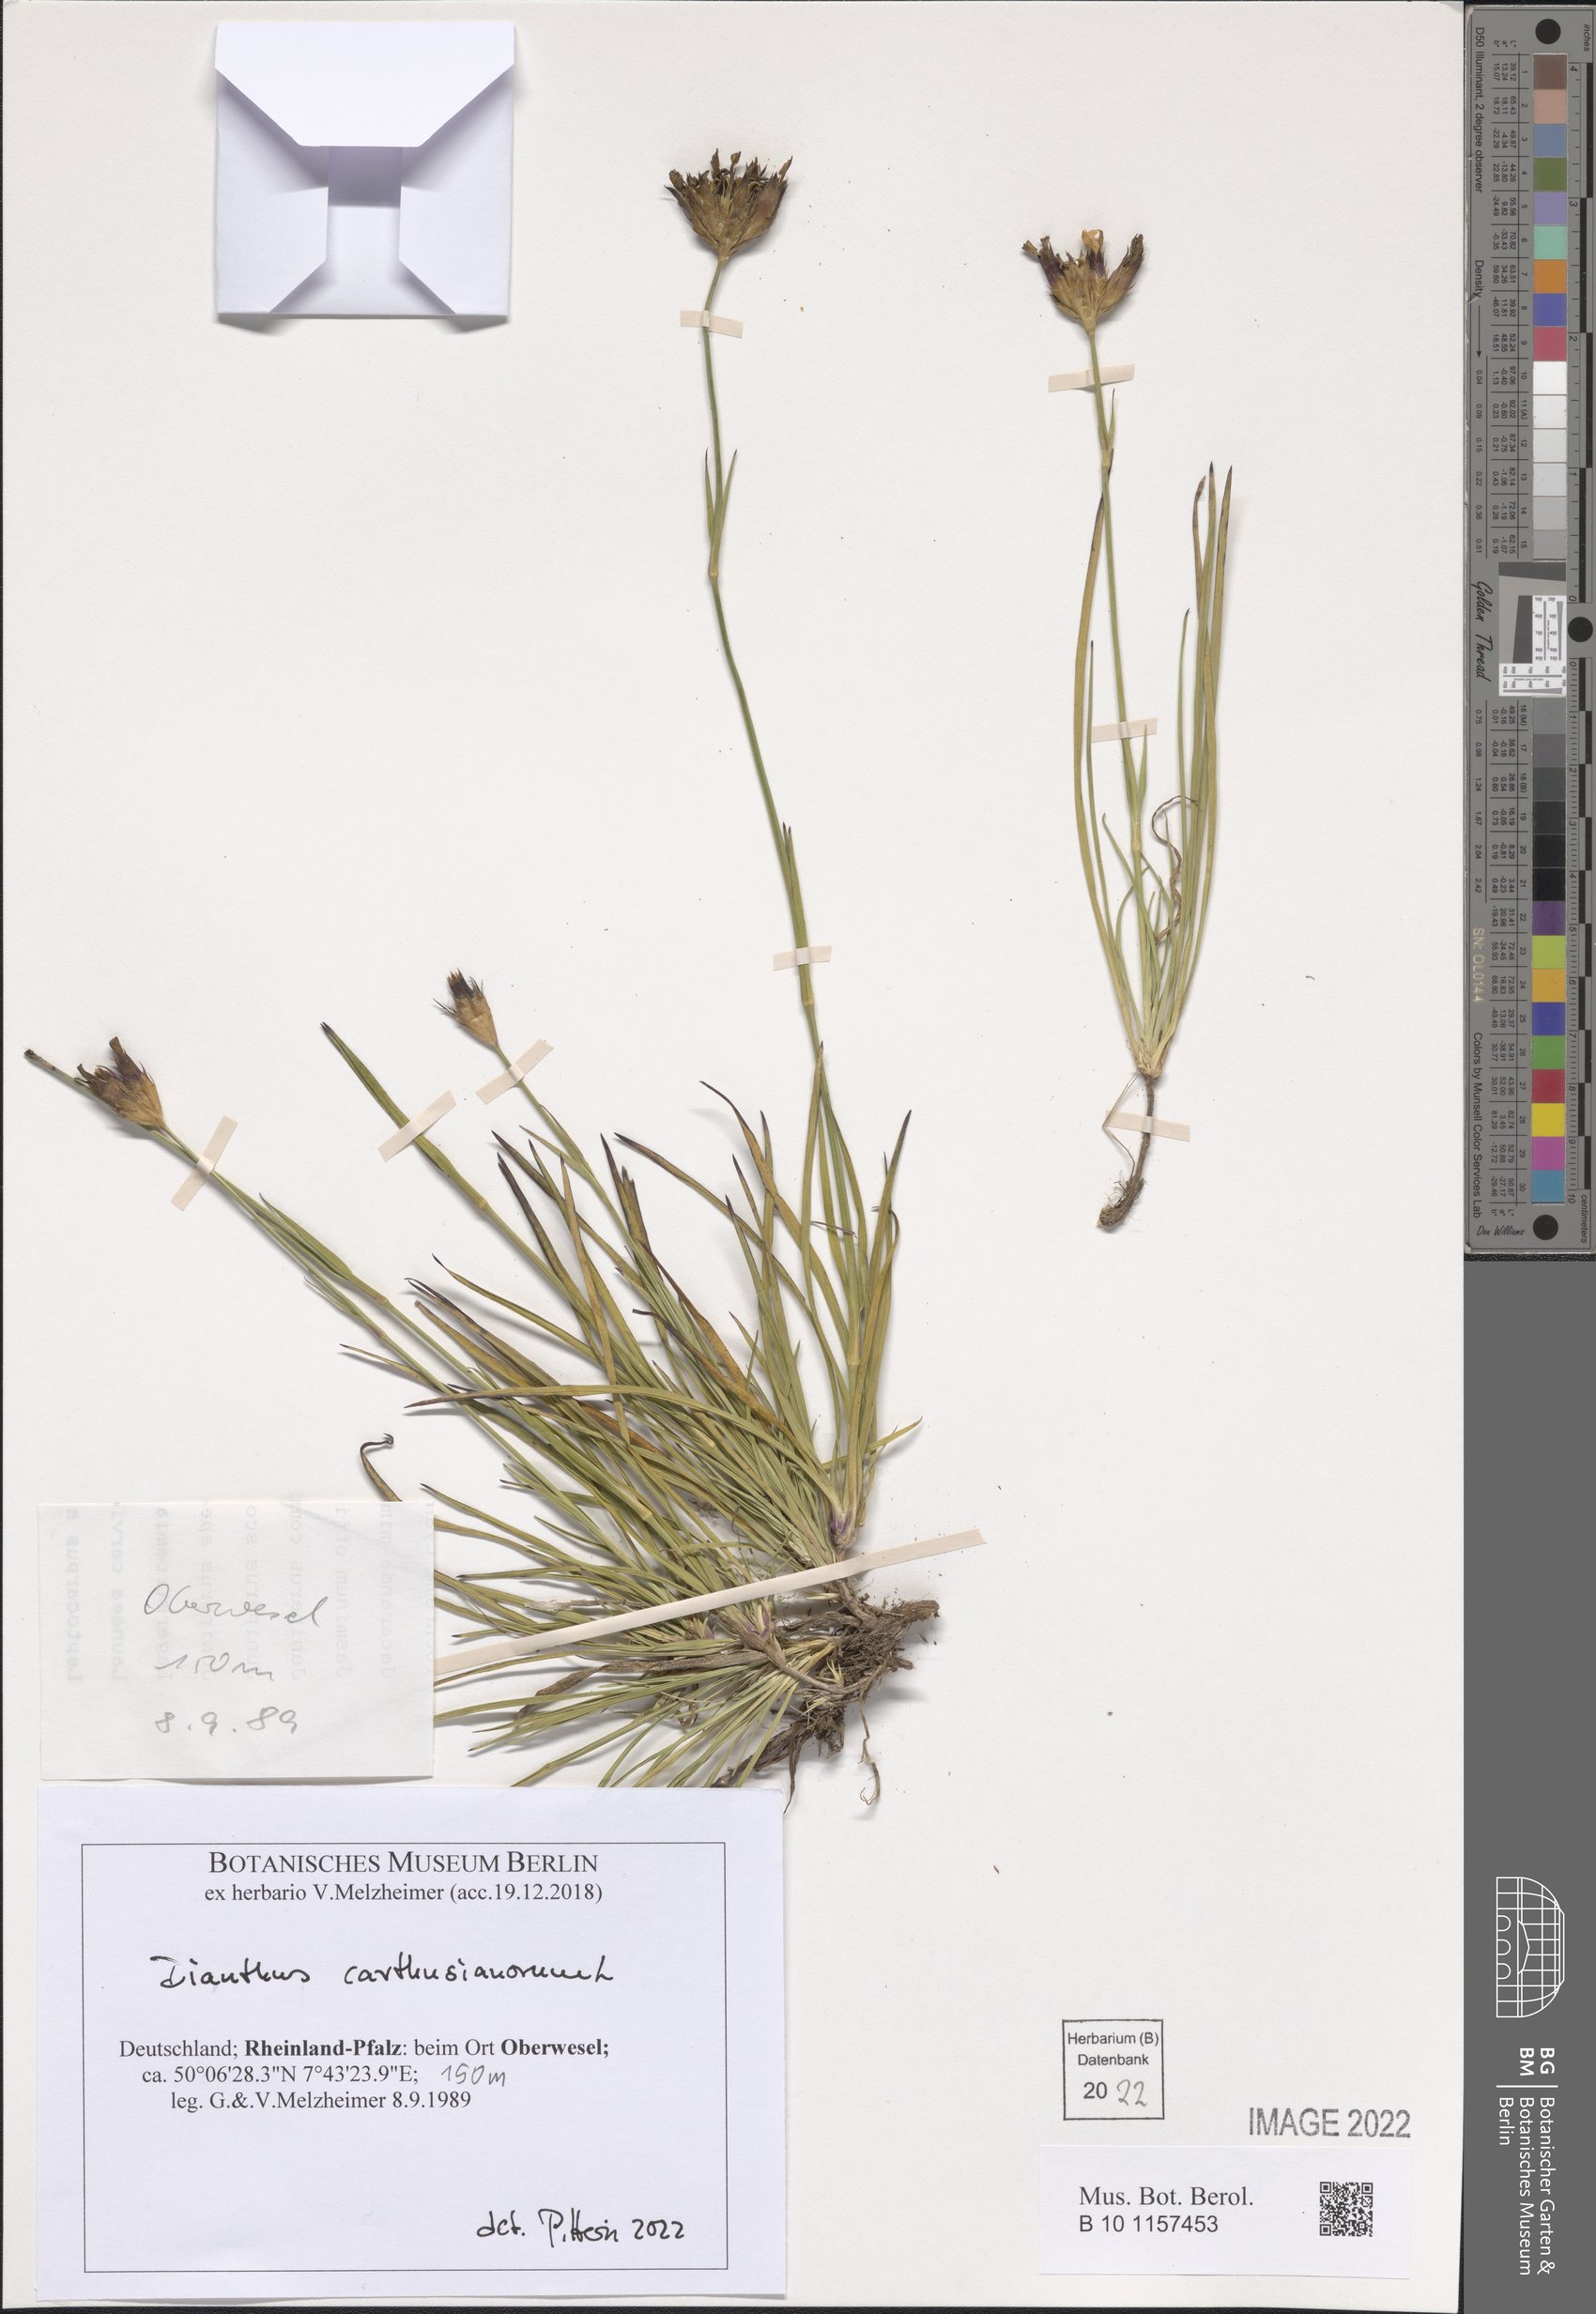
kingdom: Plantae
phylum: Tracheophyta
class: Magnoliopsida
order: Caryophyllales
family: Caryophyllaceae
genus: Dianthus
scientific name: Dianthus carthusianorum
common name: Carthusian pink
